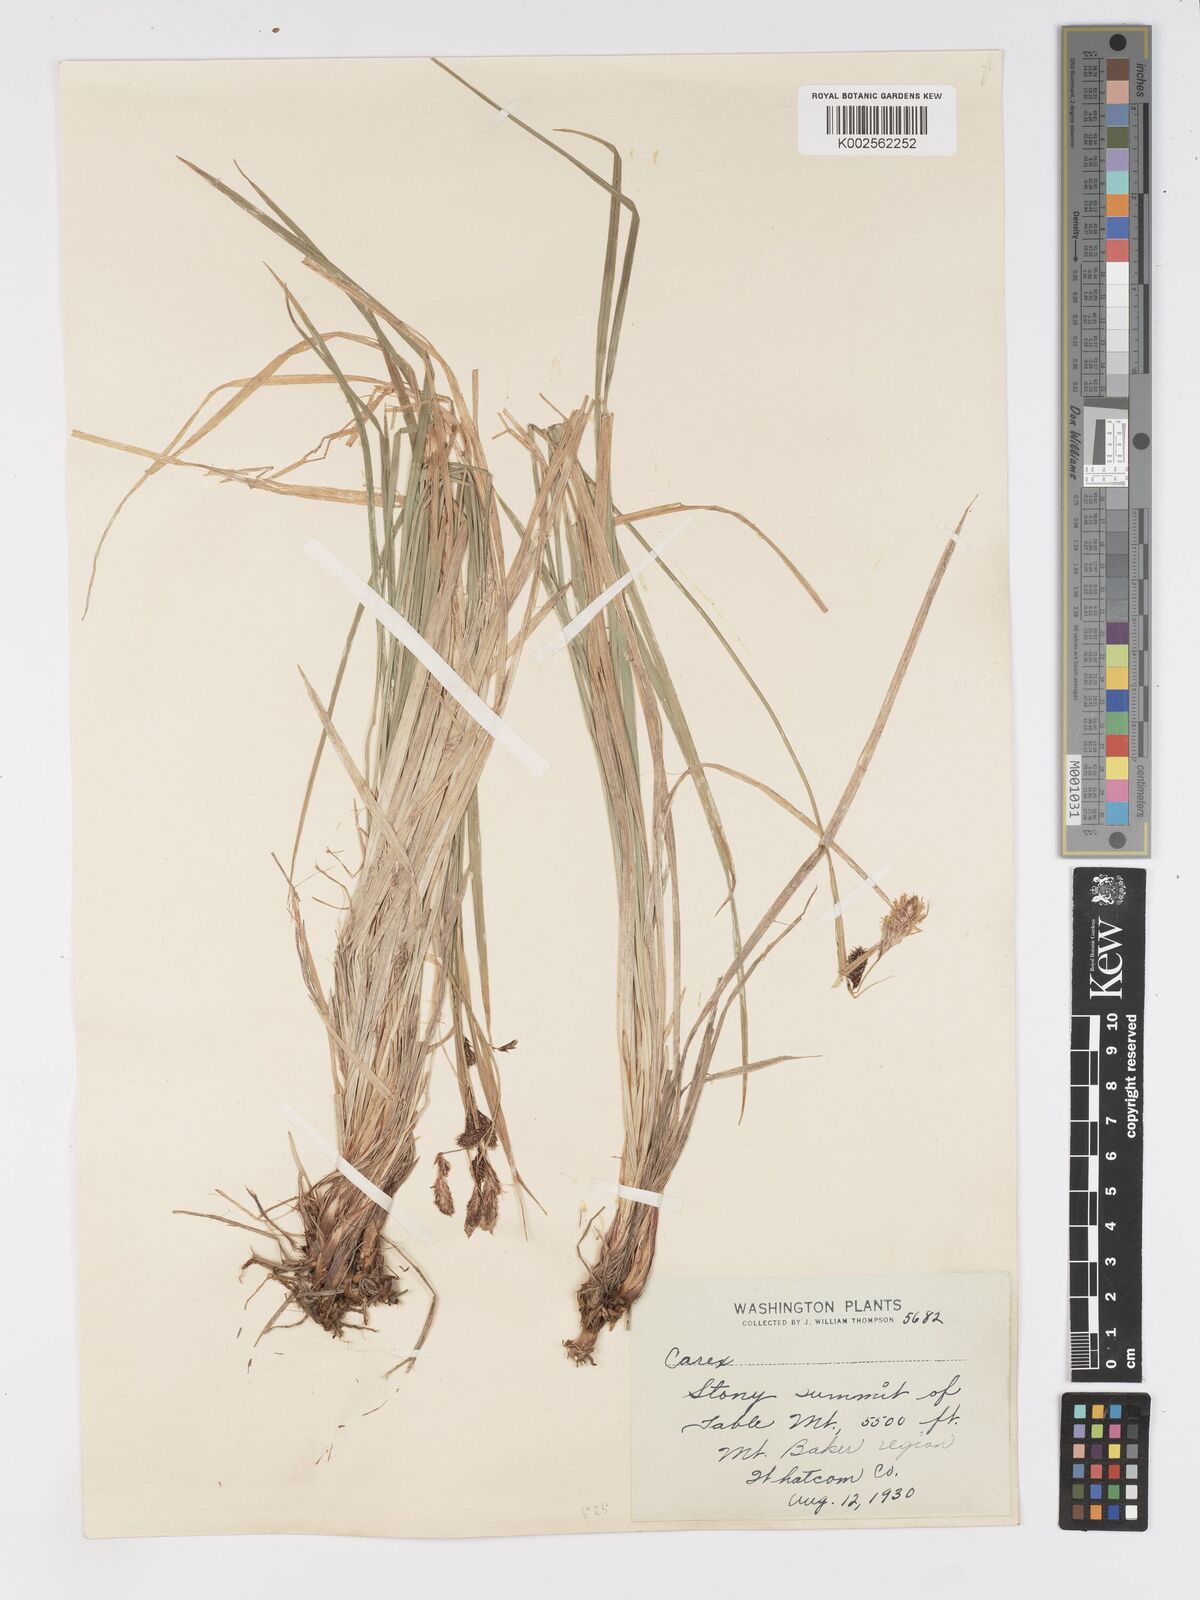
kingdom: Plantae
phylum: Tracheophyta
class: Liliopsida
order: Poales
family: Cyperaceae
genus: Carex
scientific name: Carex nebrascensis
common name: Nebraska sedge
